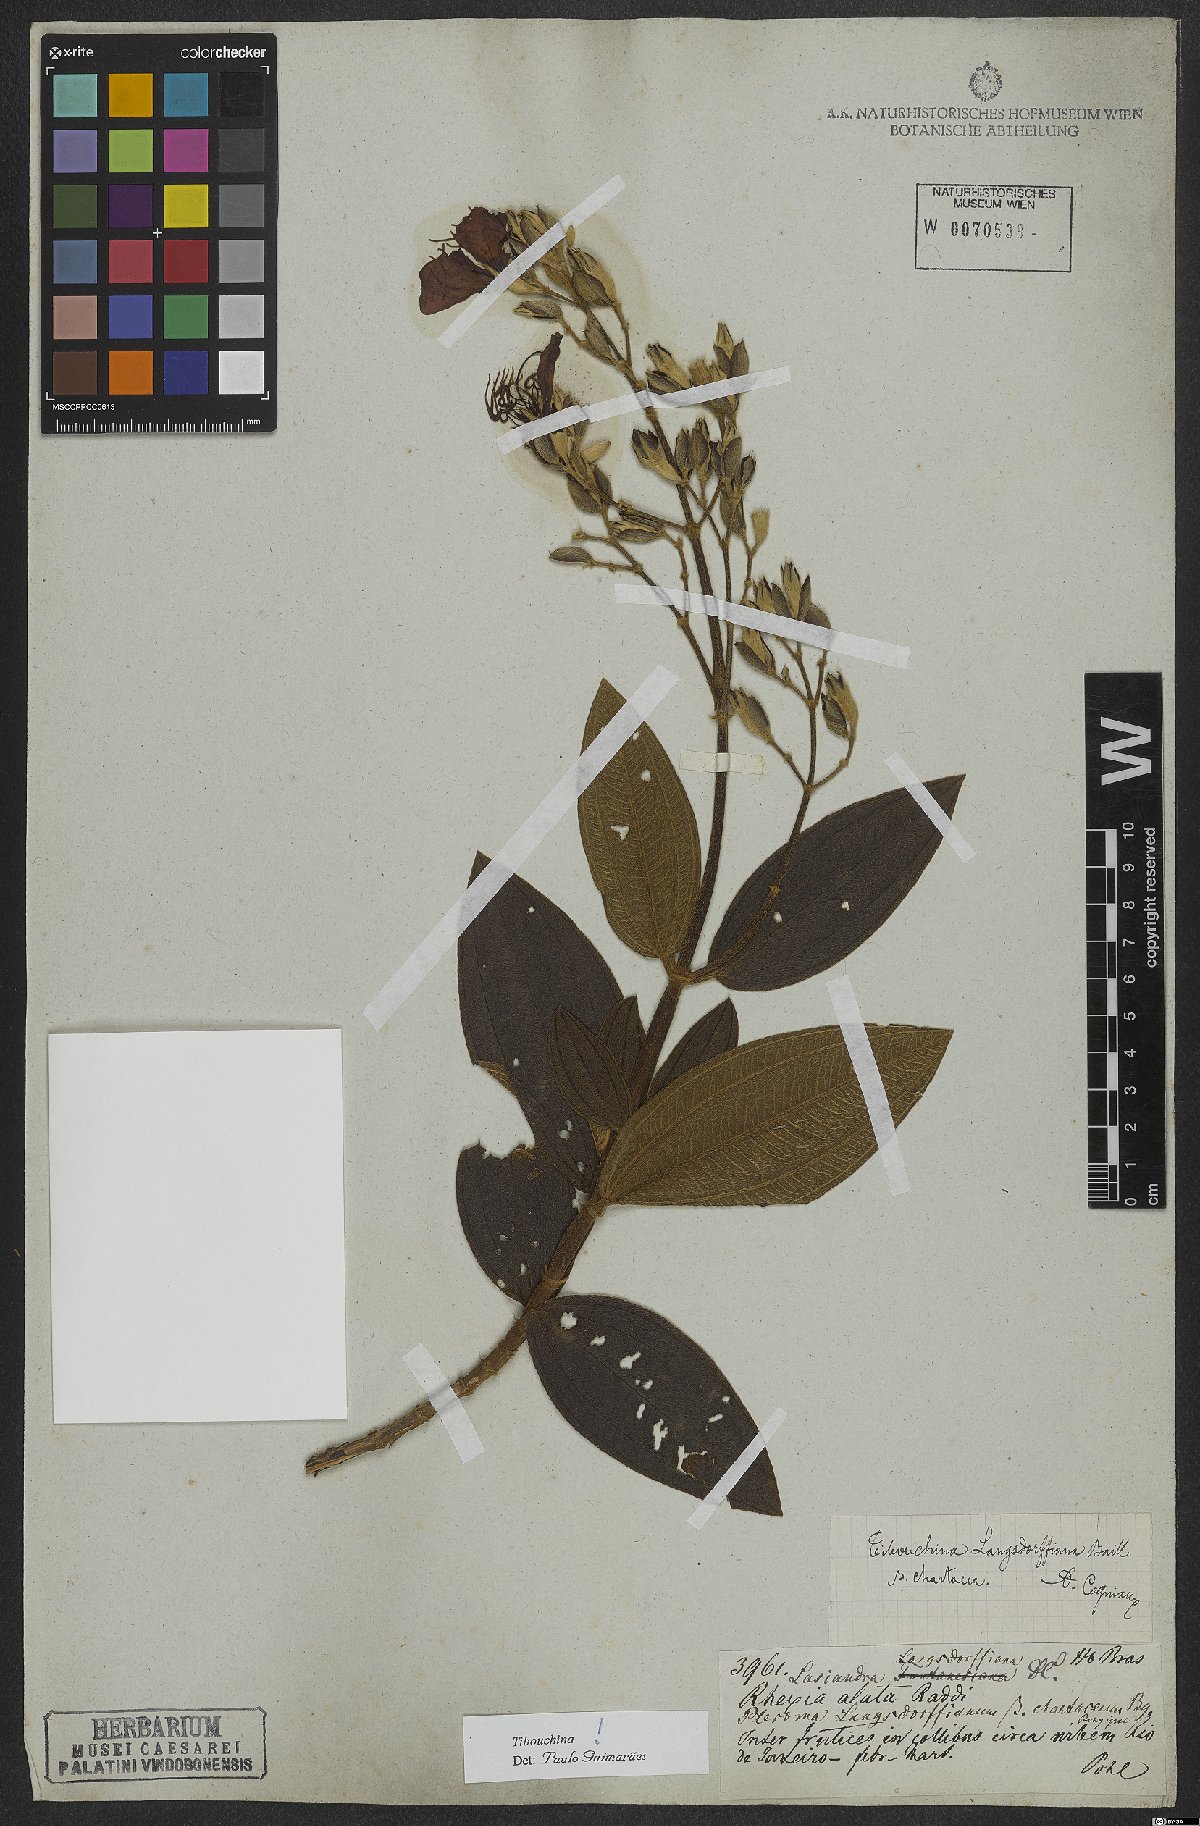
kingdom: Plantae
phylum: Tracheophyta
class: Magnoliopsida
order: Myrtales
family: Melastomataceae
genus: Pleroma
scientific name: Pleroma langsdorfianum
